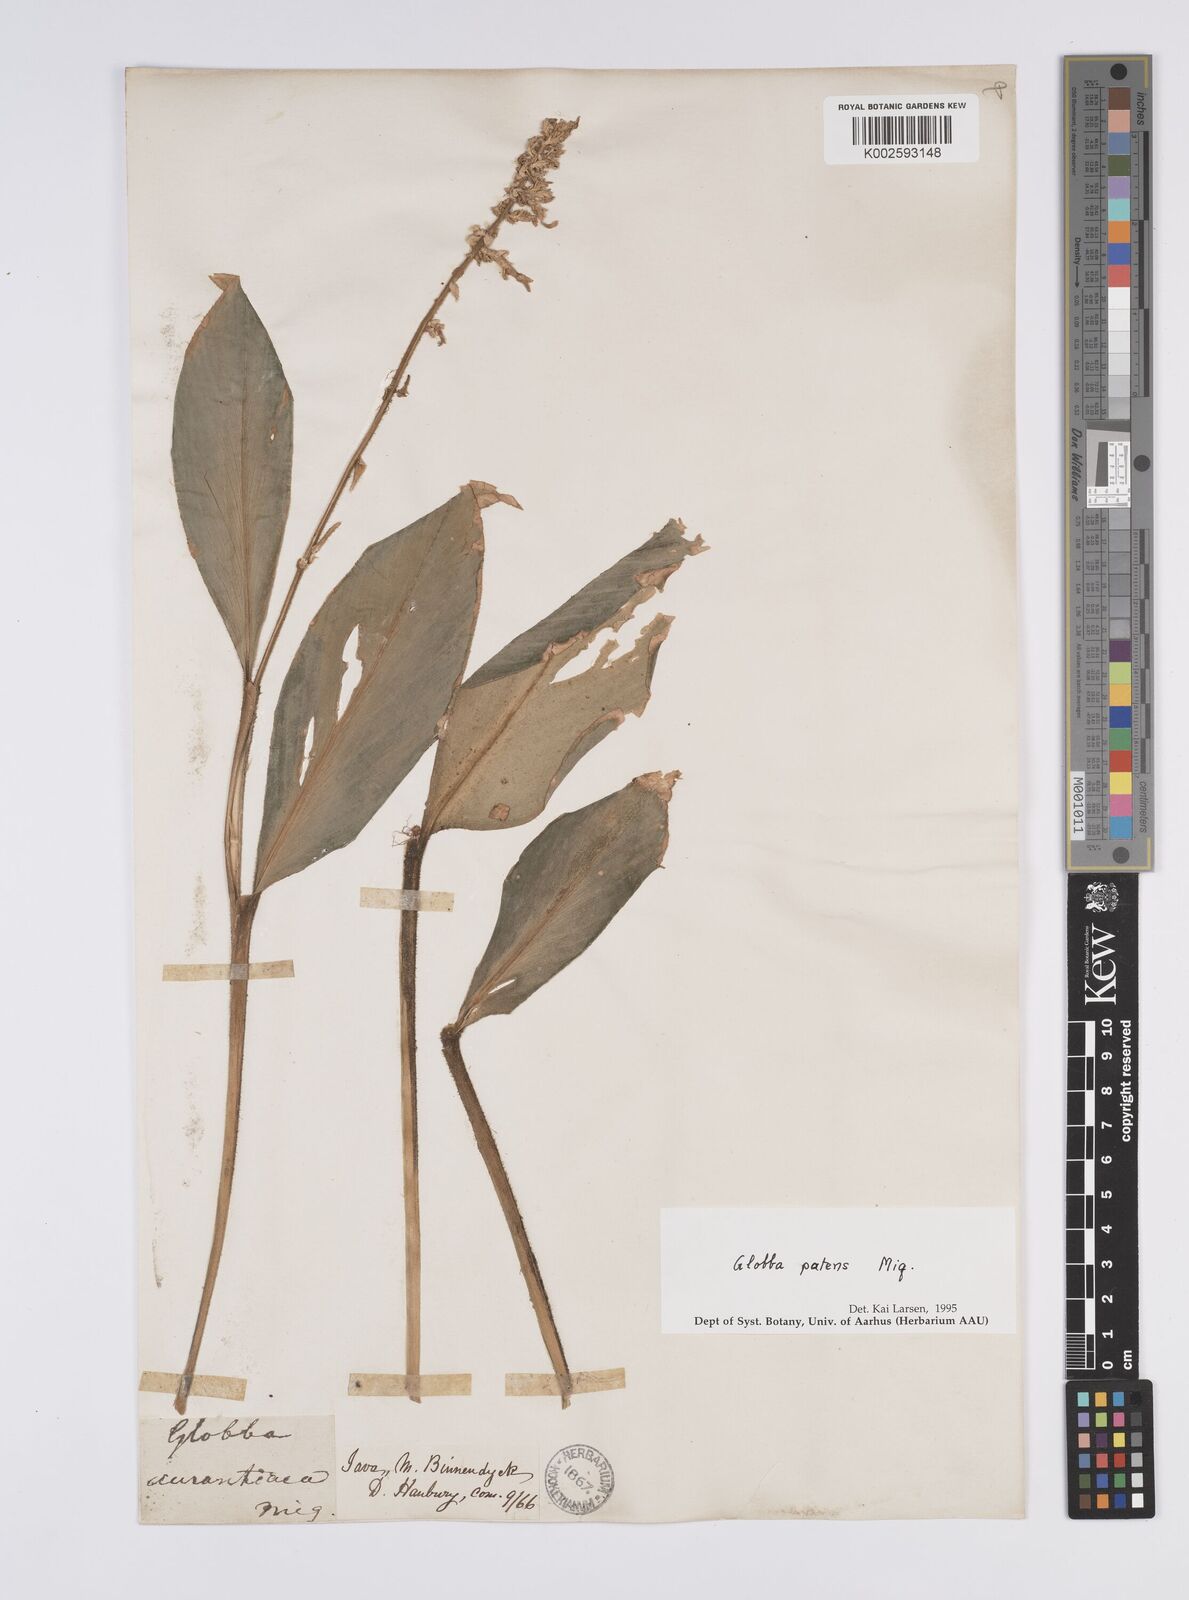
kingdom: Plantae
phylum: Tracheophyta
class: Liliopsida
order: Zingiberales
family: Zingiberaceae
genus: Globba
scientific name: Globba patens
